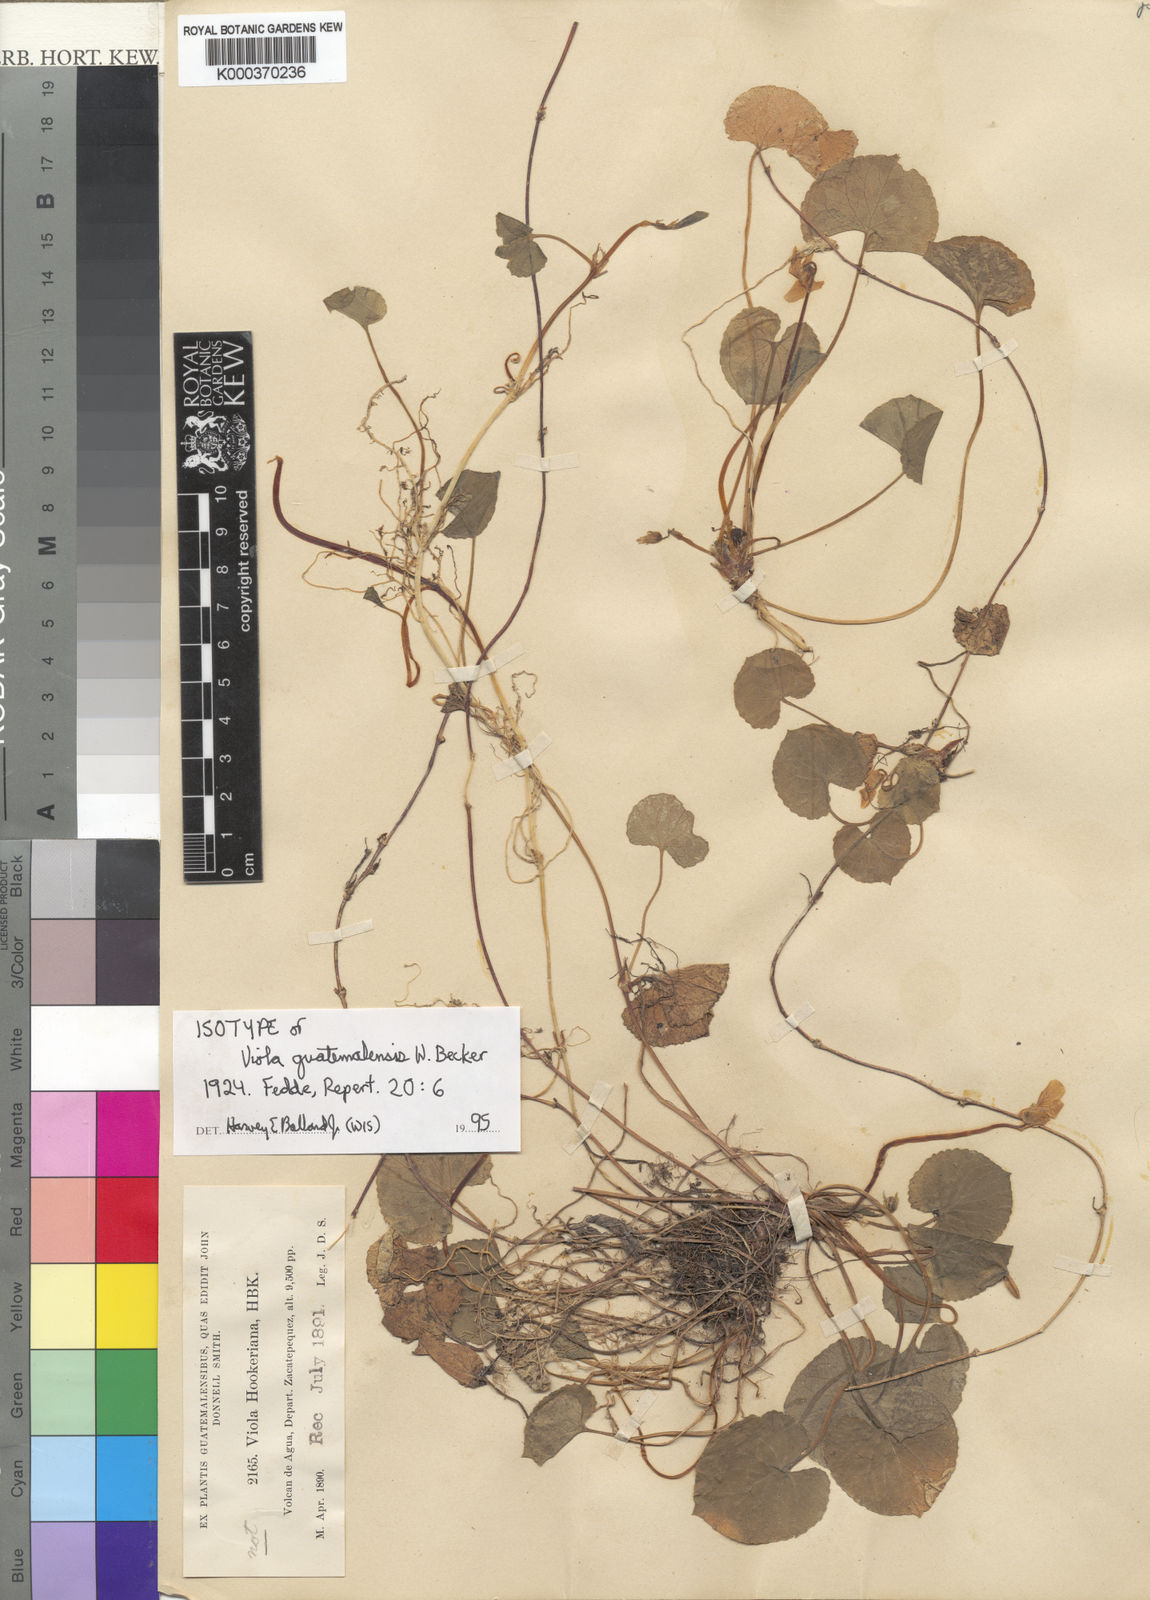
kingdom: Plantae
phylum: Tracheophyta
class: Magnoliopsida
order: Malpighiales
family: Violaceae
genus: Viola
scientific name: Viola guatemalensis
